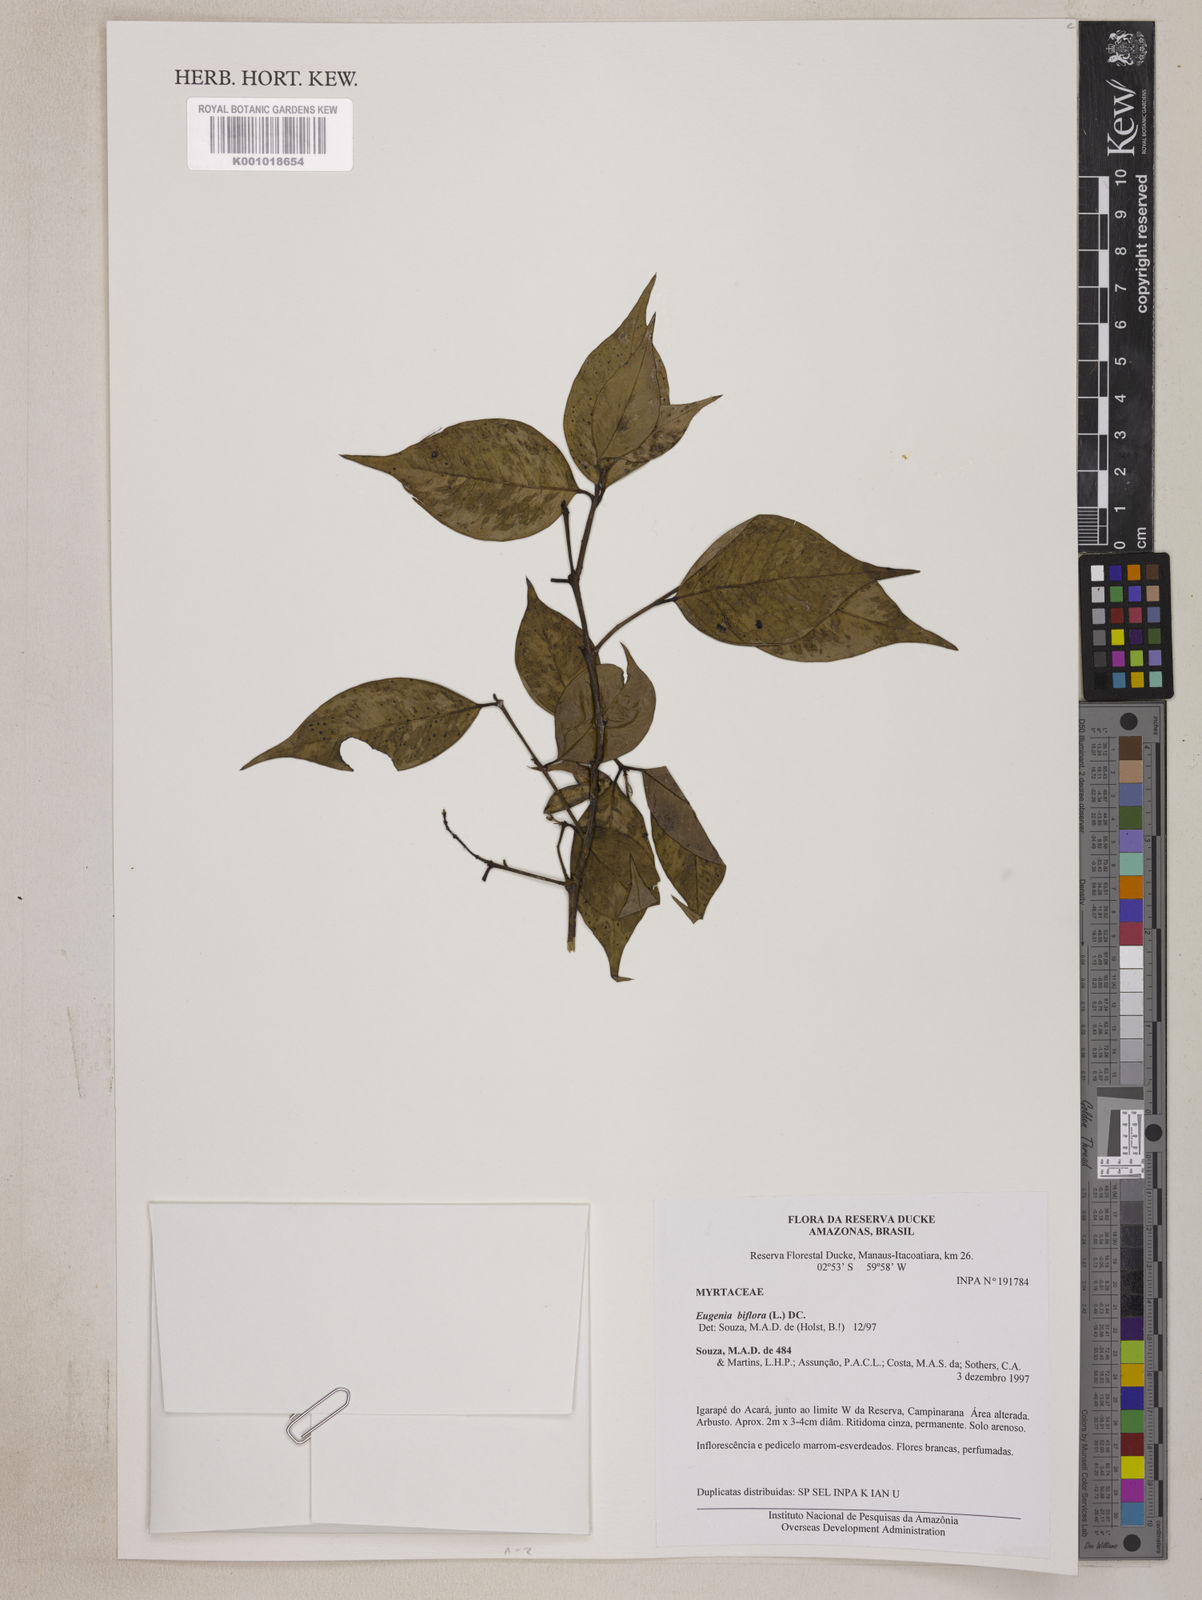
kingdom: Plantae
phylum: Tracheophyta
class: Magnoliopsida
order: Myrtales
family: Myrtaceae
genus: Eugenia
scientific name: Eugenia biflora
